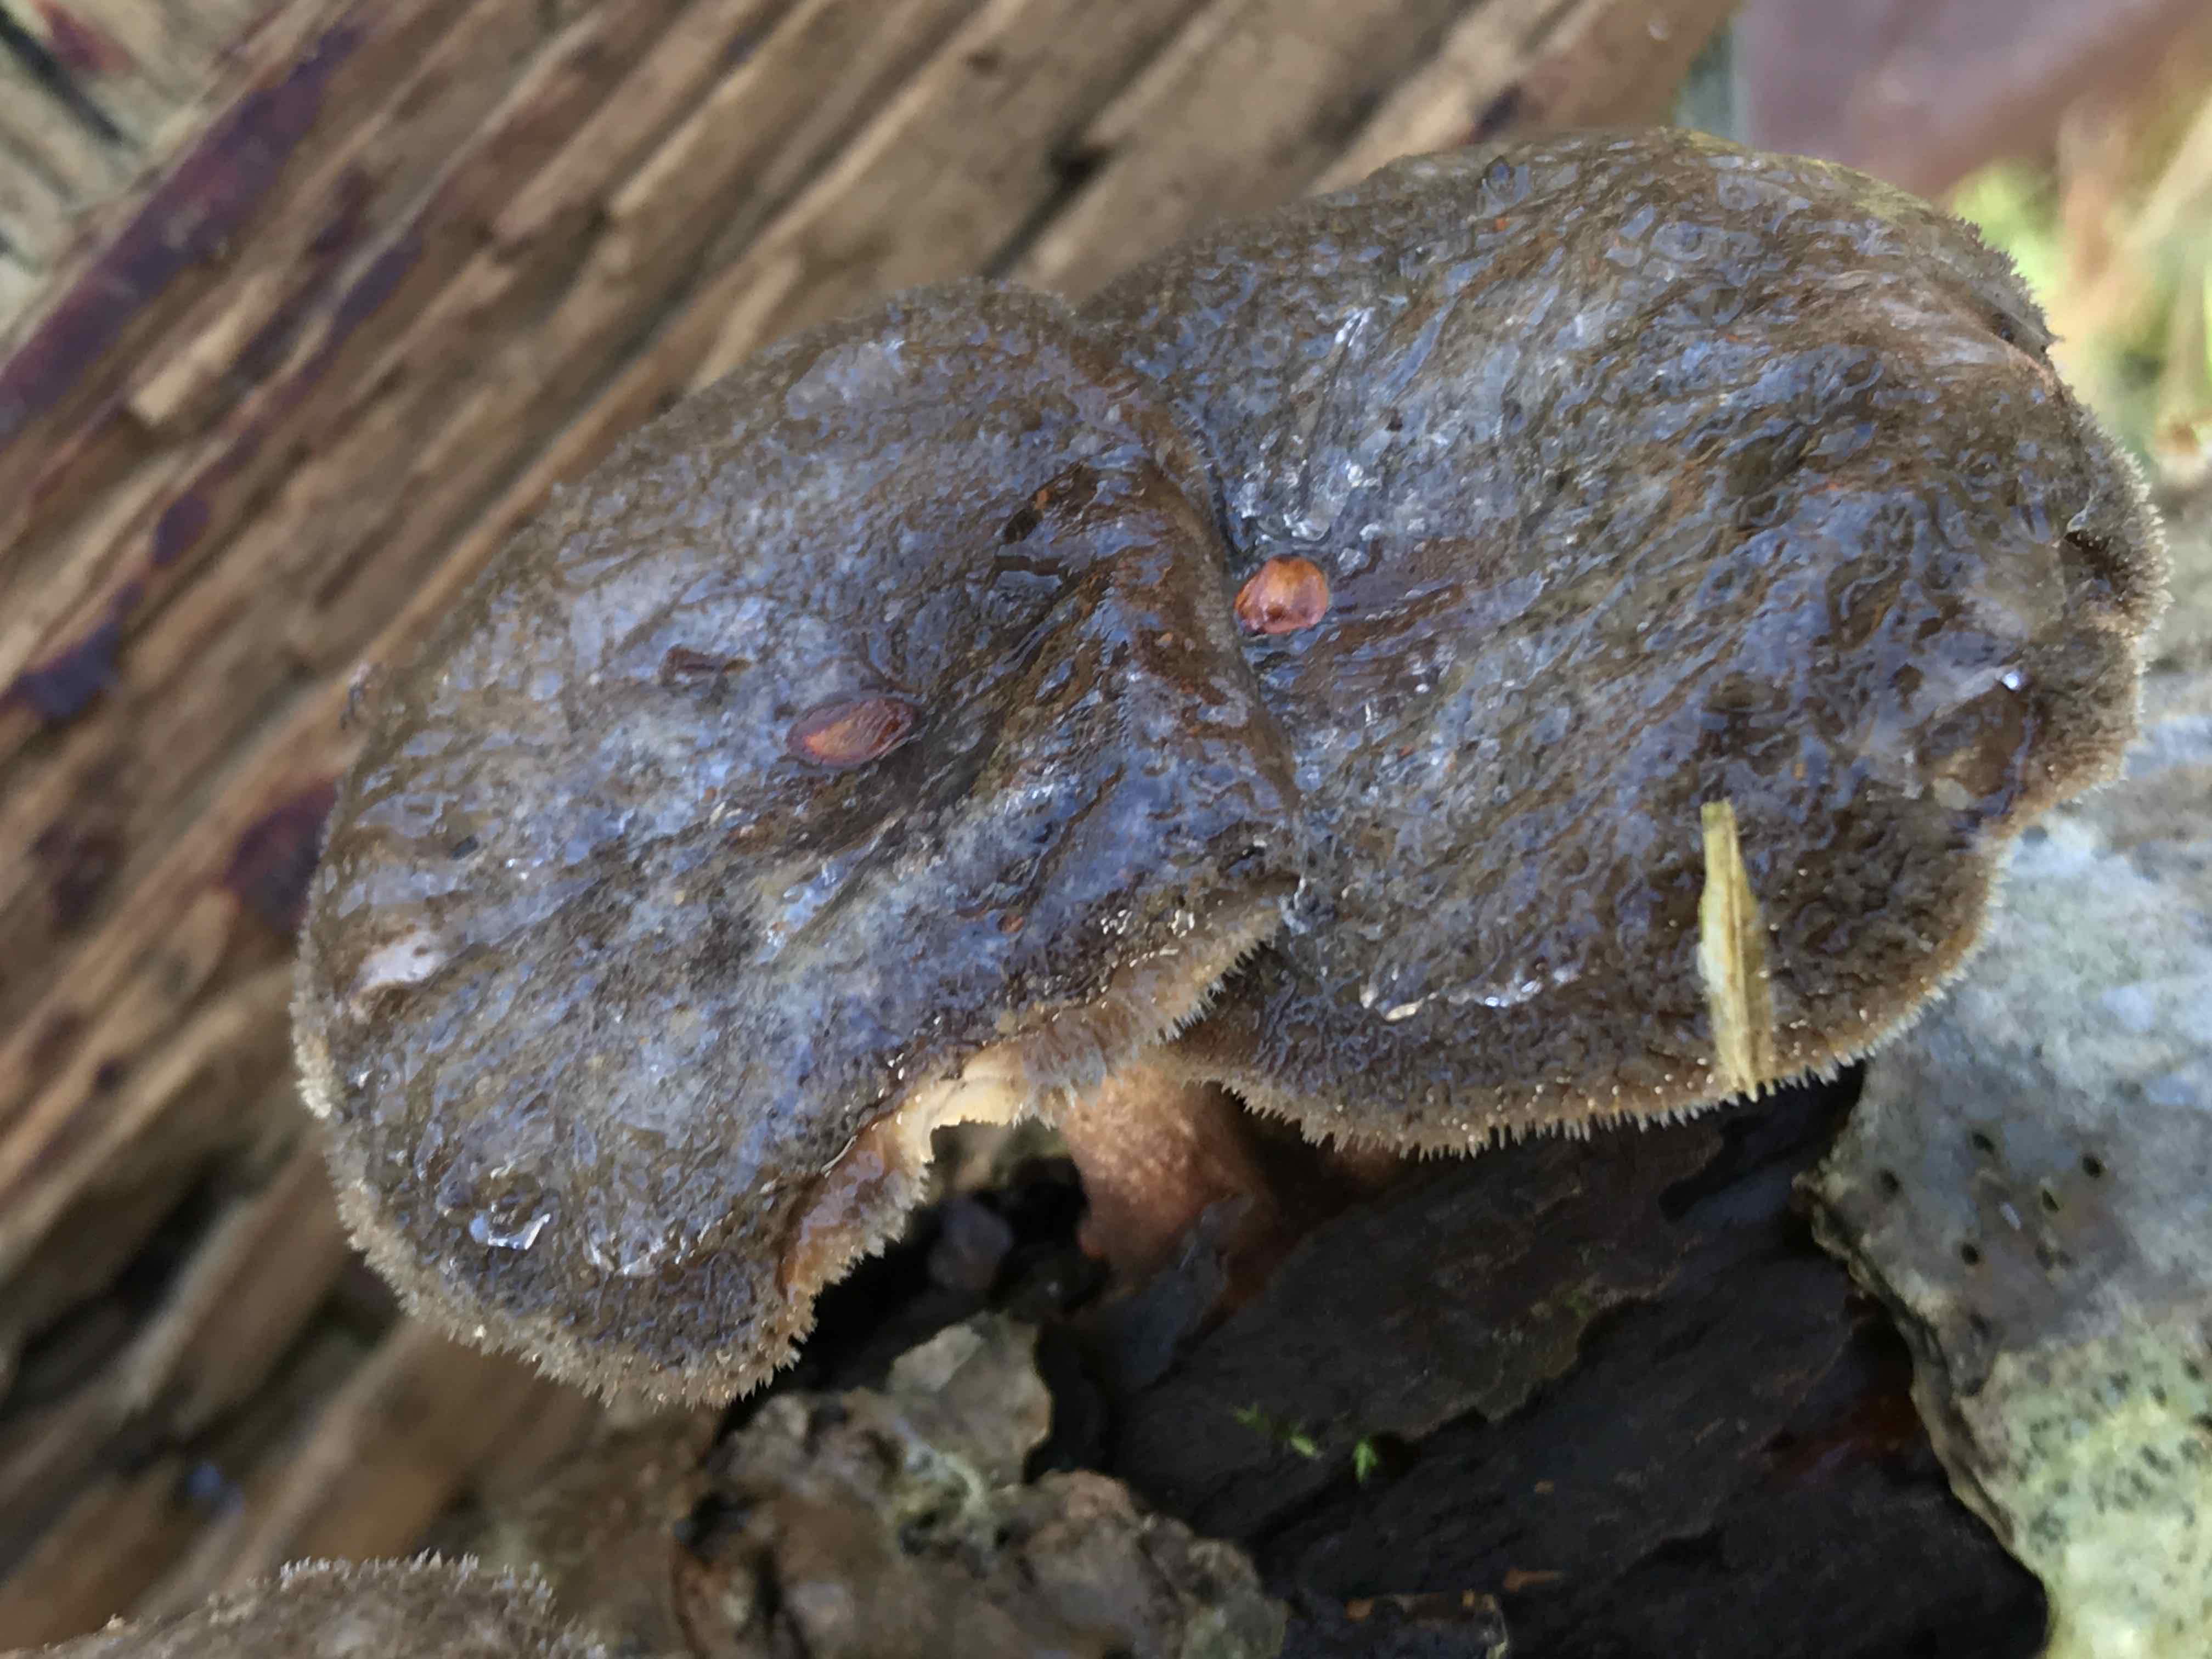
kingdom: Fungi
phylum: Basidiomycota
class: Agaricomycetes
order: Polyporales
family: Polyporaceae
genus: Lentinus
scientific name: Lentinus brumalis
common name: vinter-stilkporesvamp
